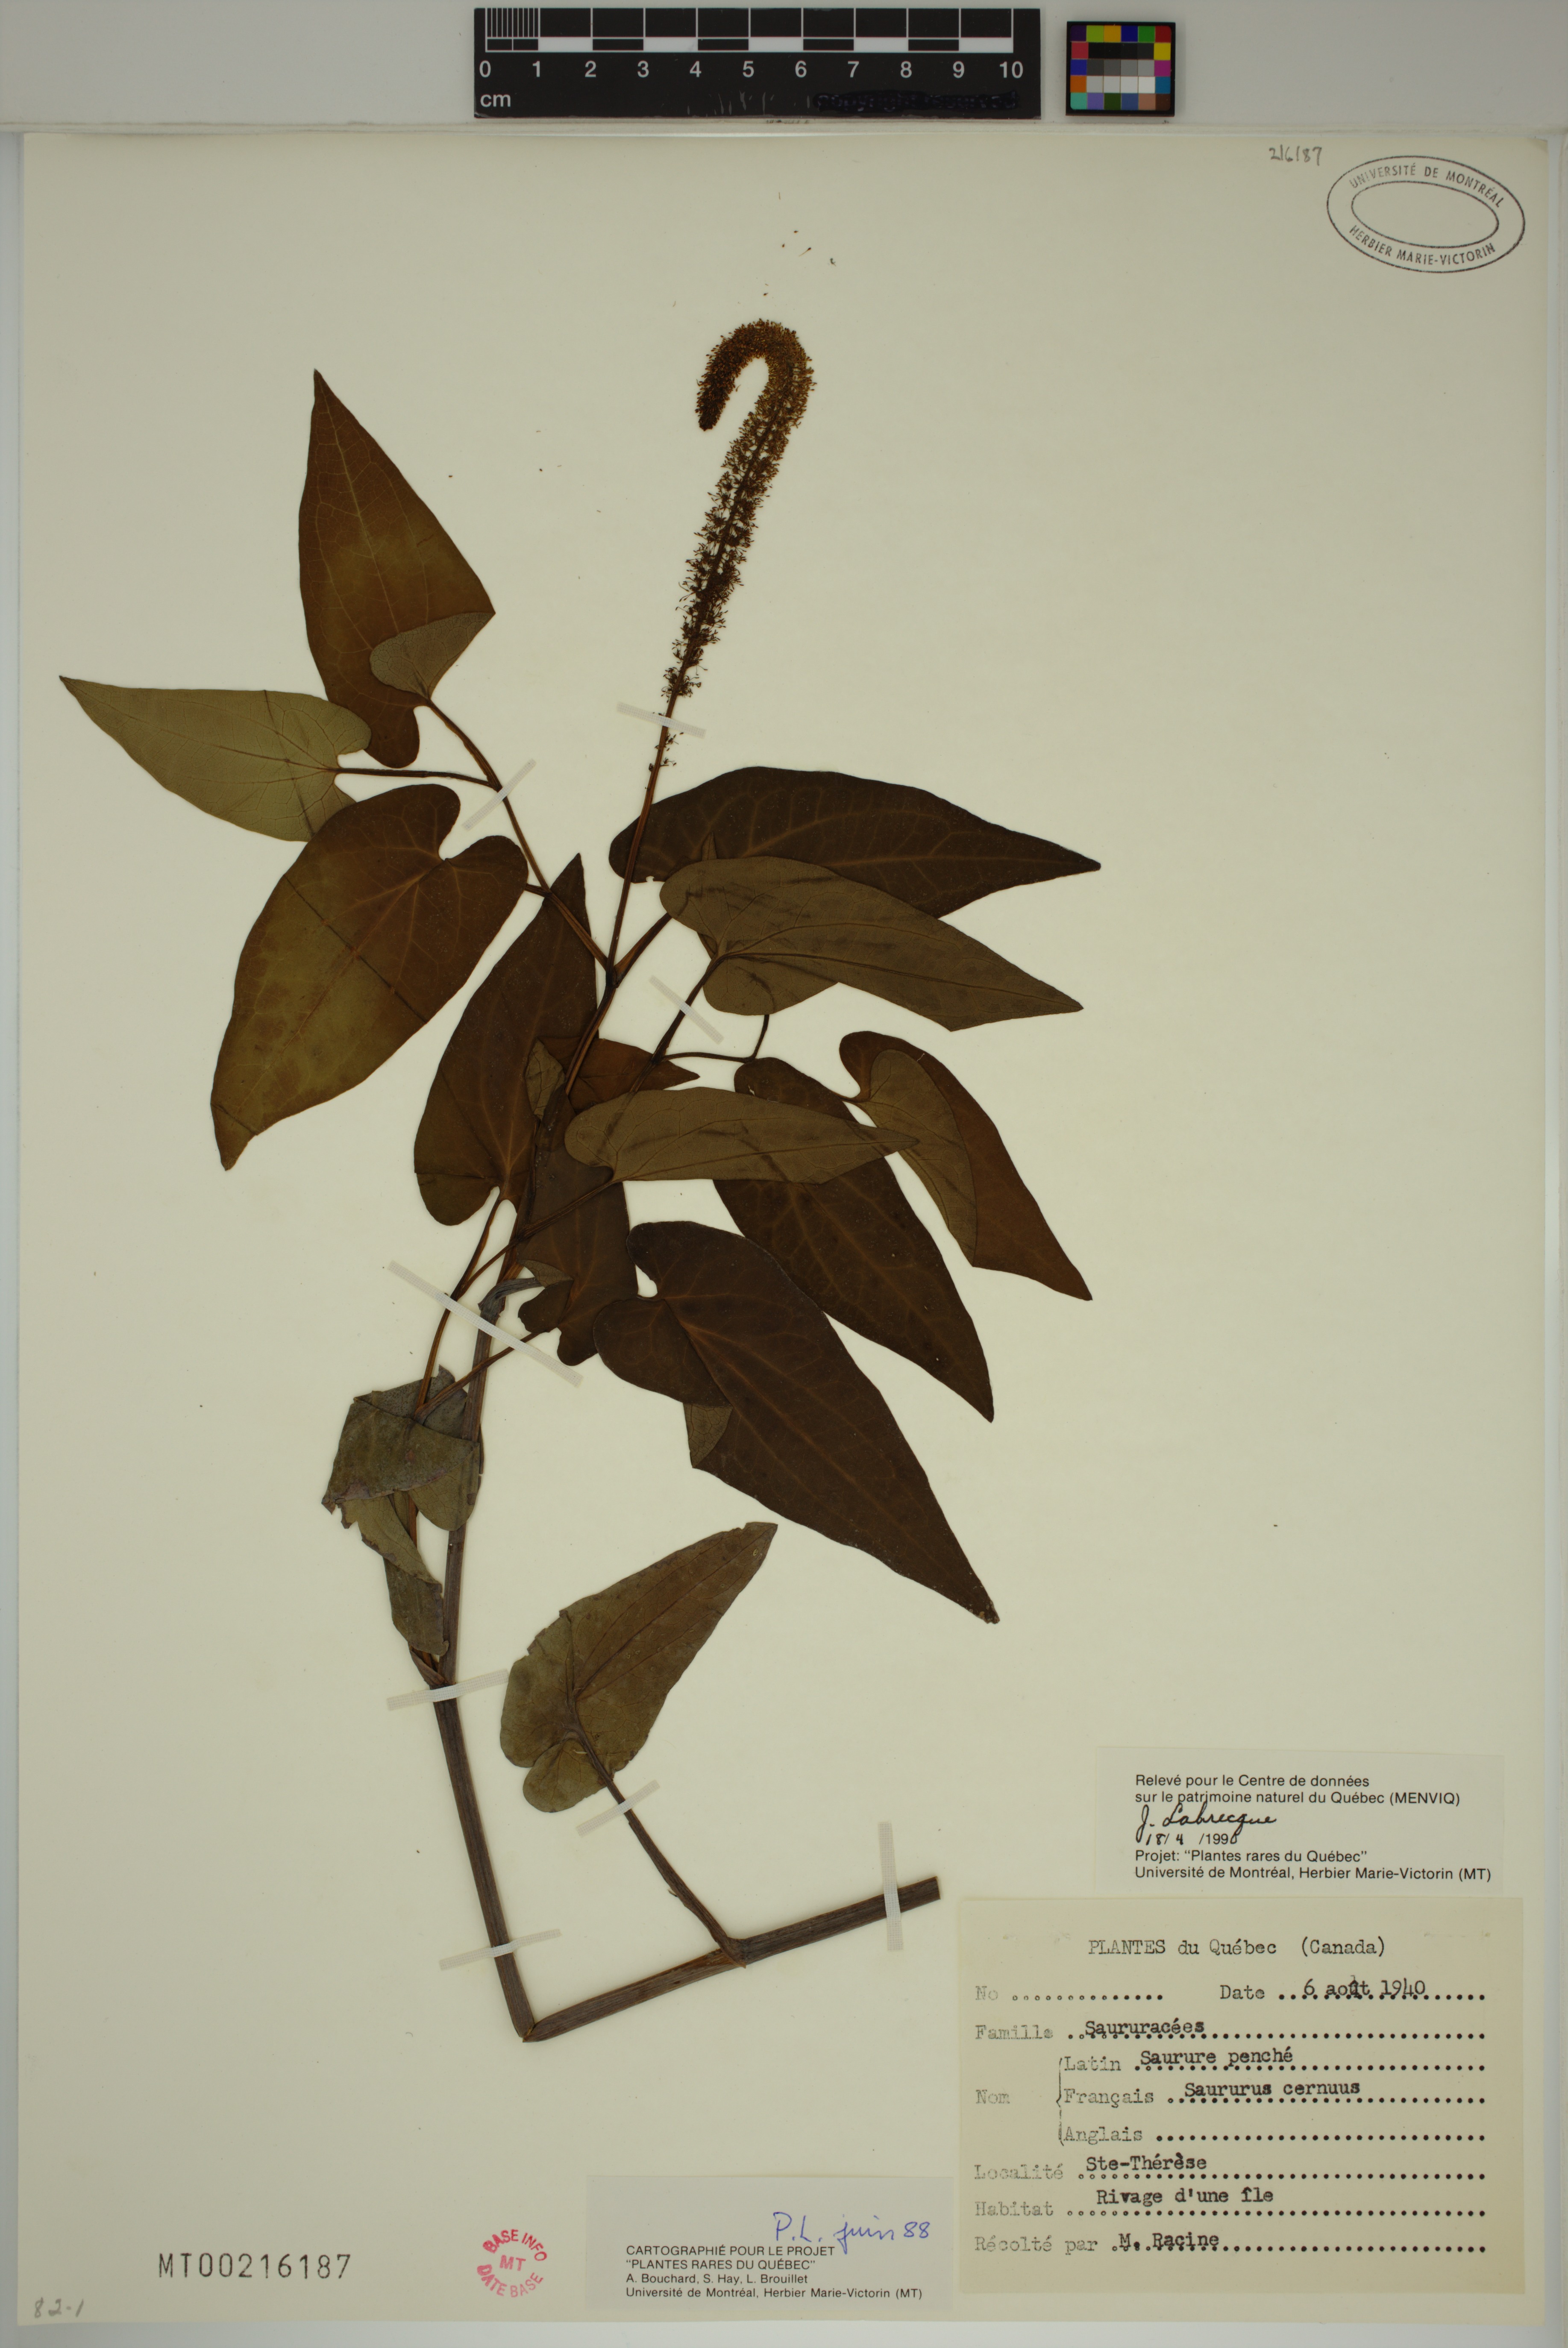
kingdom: Plantae
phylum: Tracheophyta
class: Magnoliopsida
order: Piperales
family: Saururaceae
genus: Saururus
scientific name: Saururus cernuus
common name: Lizard's-tail
